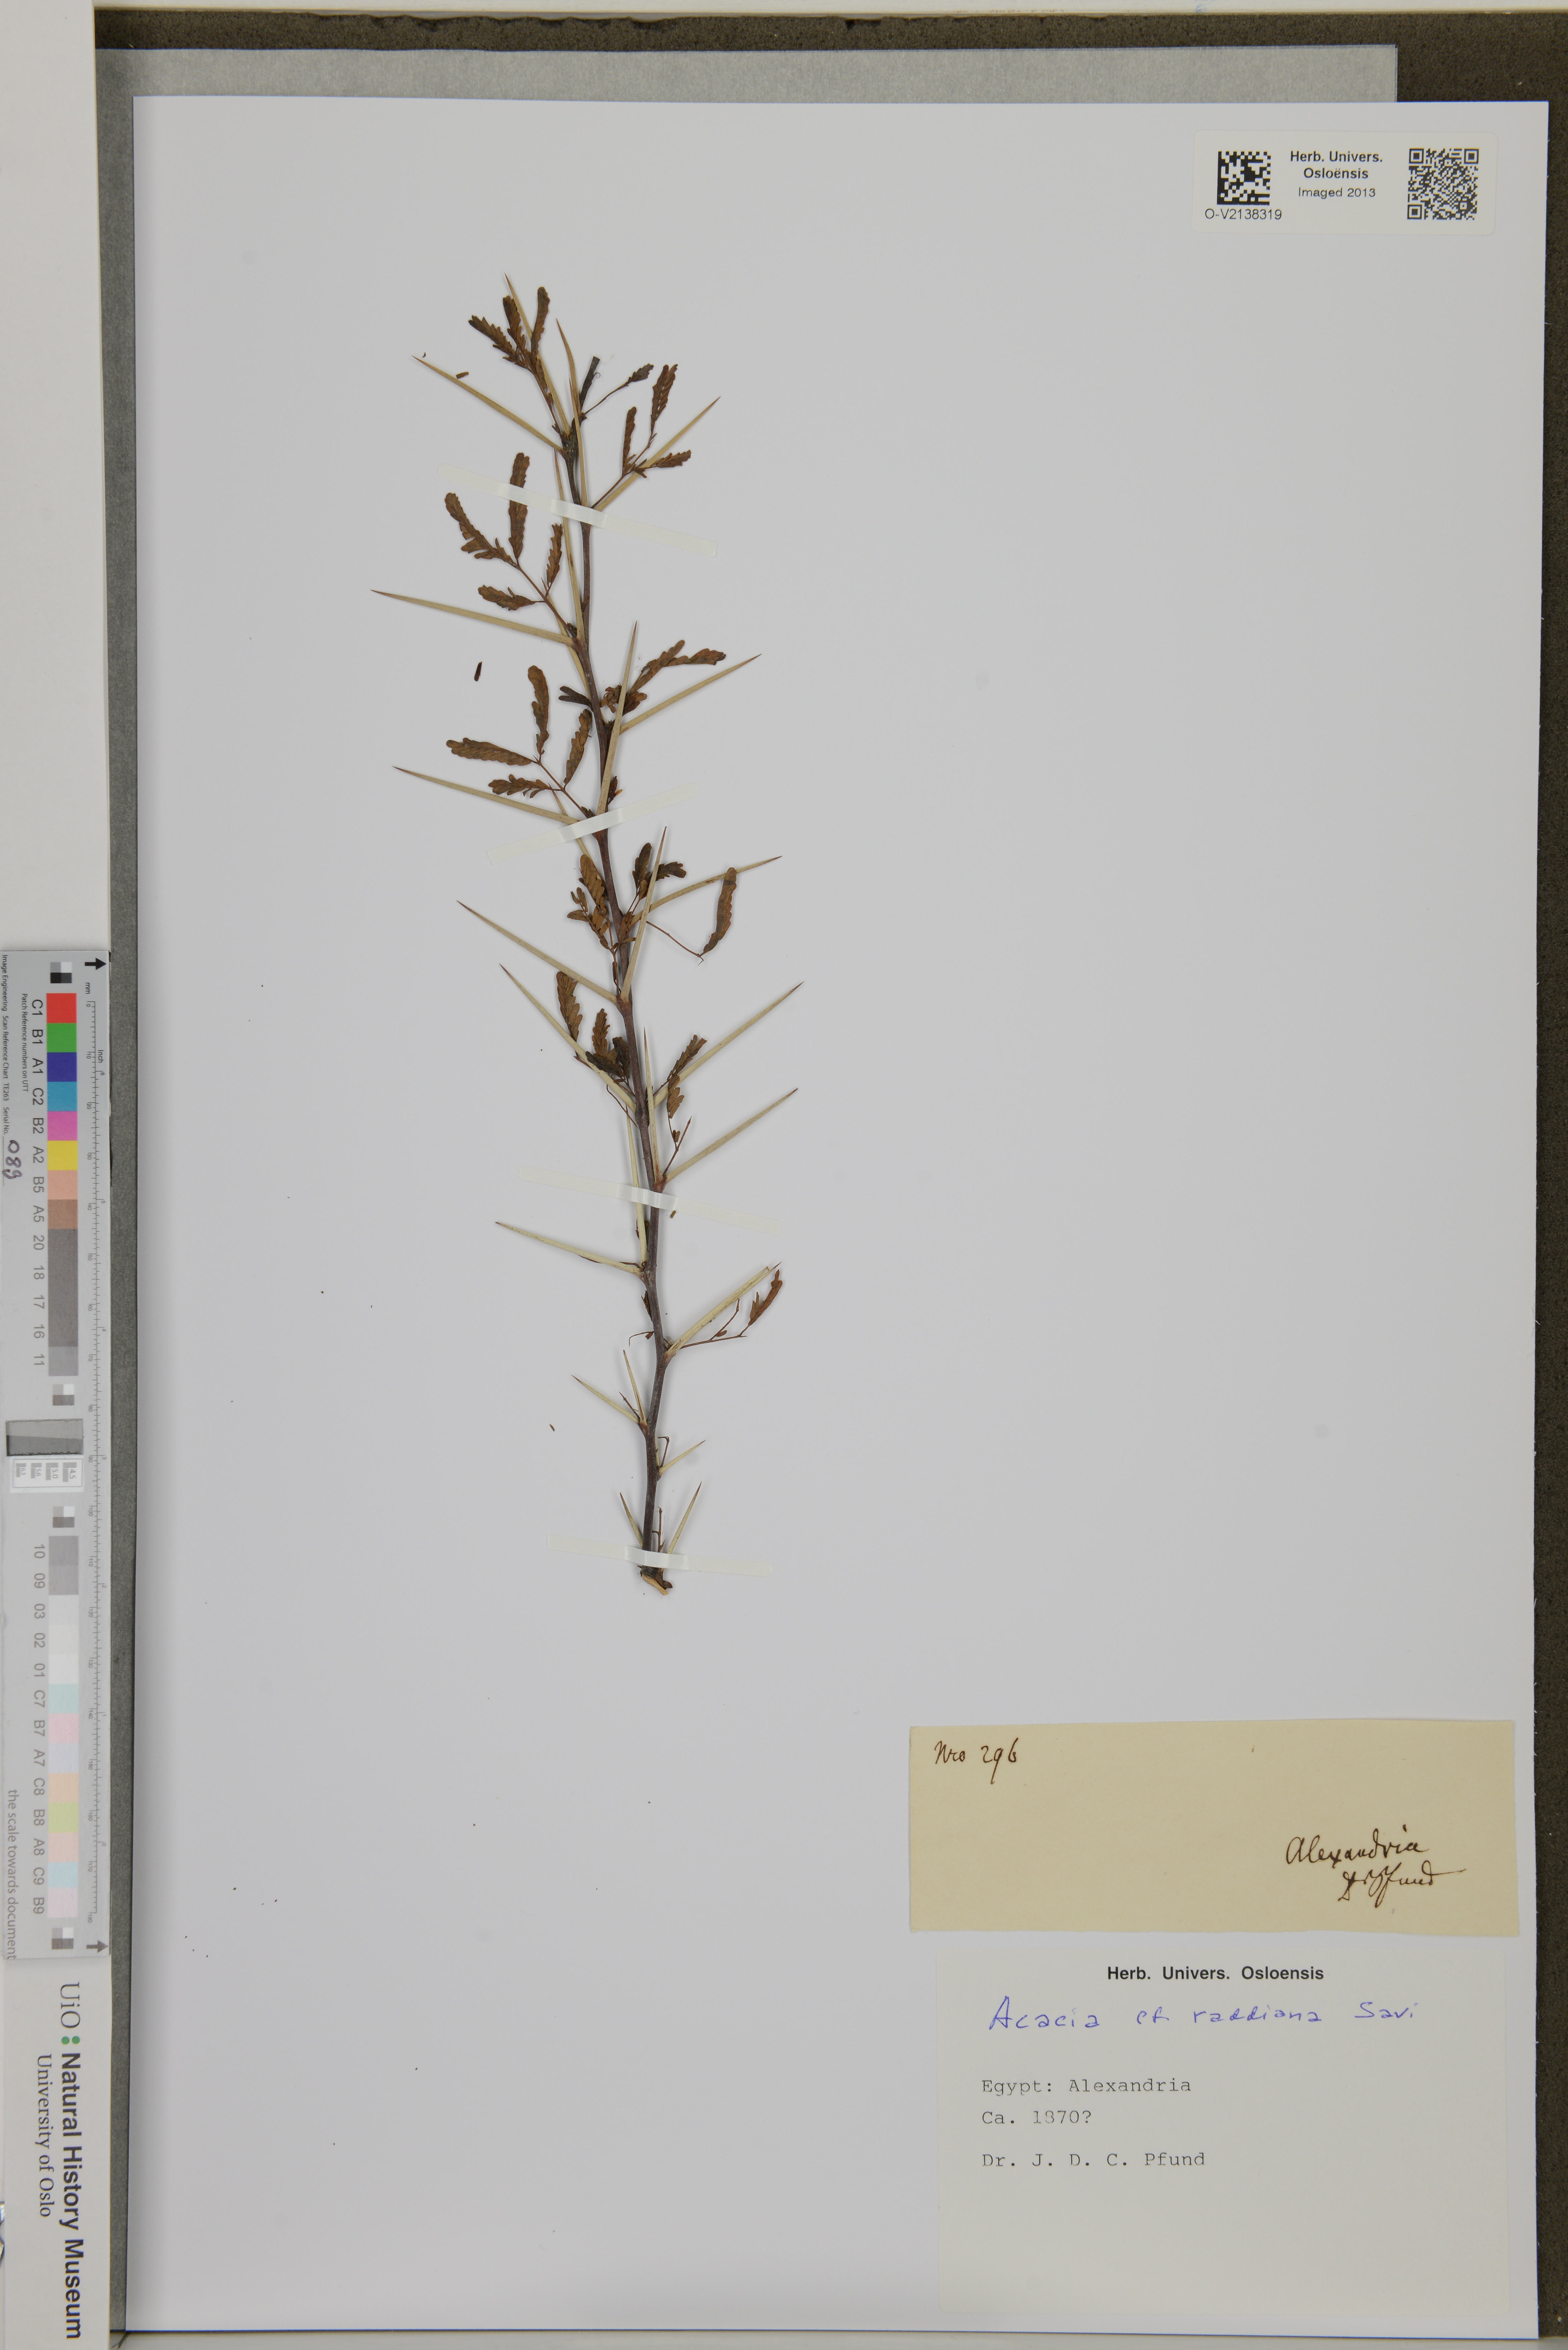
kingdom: Plantae
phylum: Tracheophyta
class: Magnoliopsida
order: Fabales
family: Fabaceae
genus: Vachellia
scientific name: Vachellia tortilis
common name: Umbrella thorn acacia
